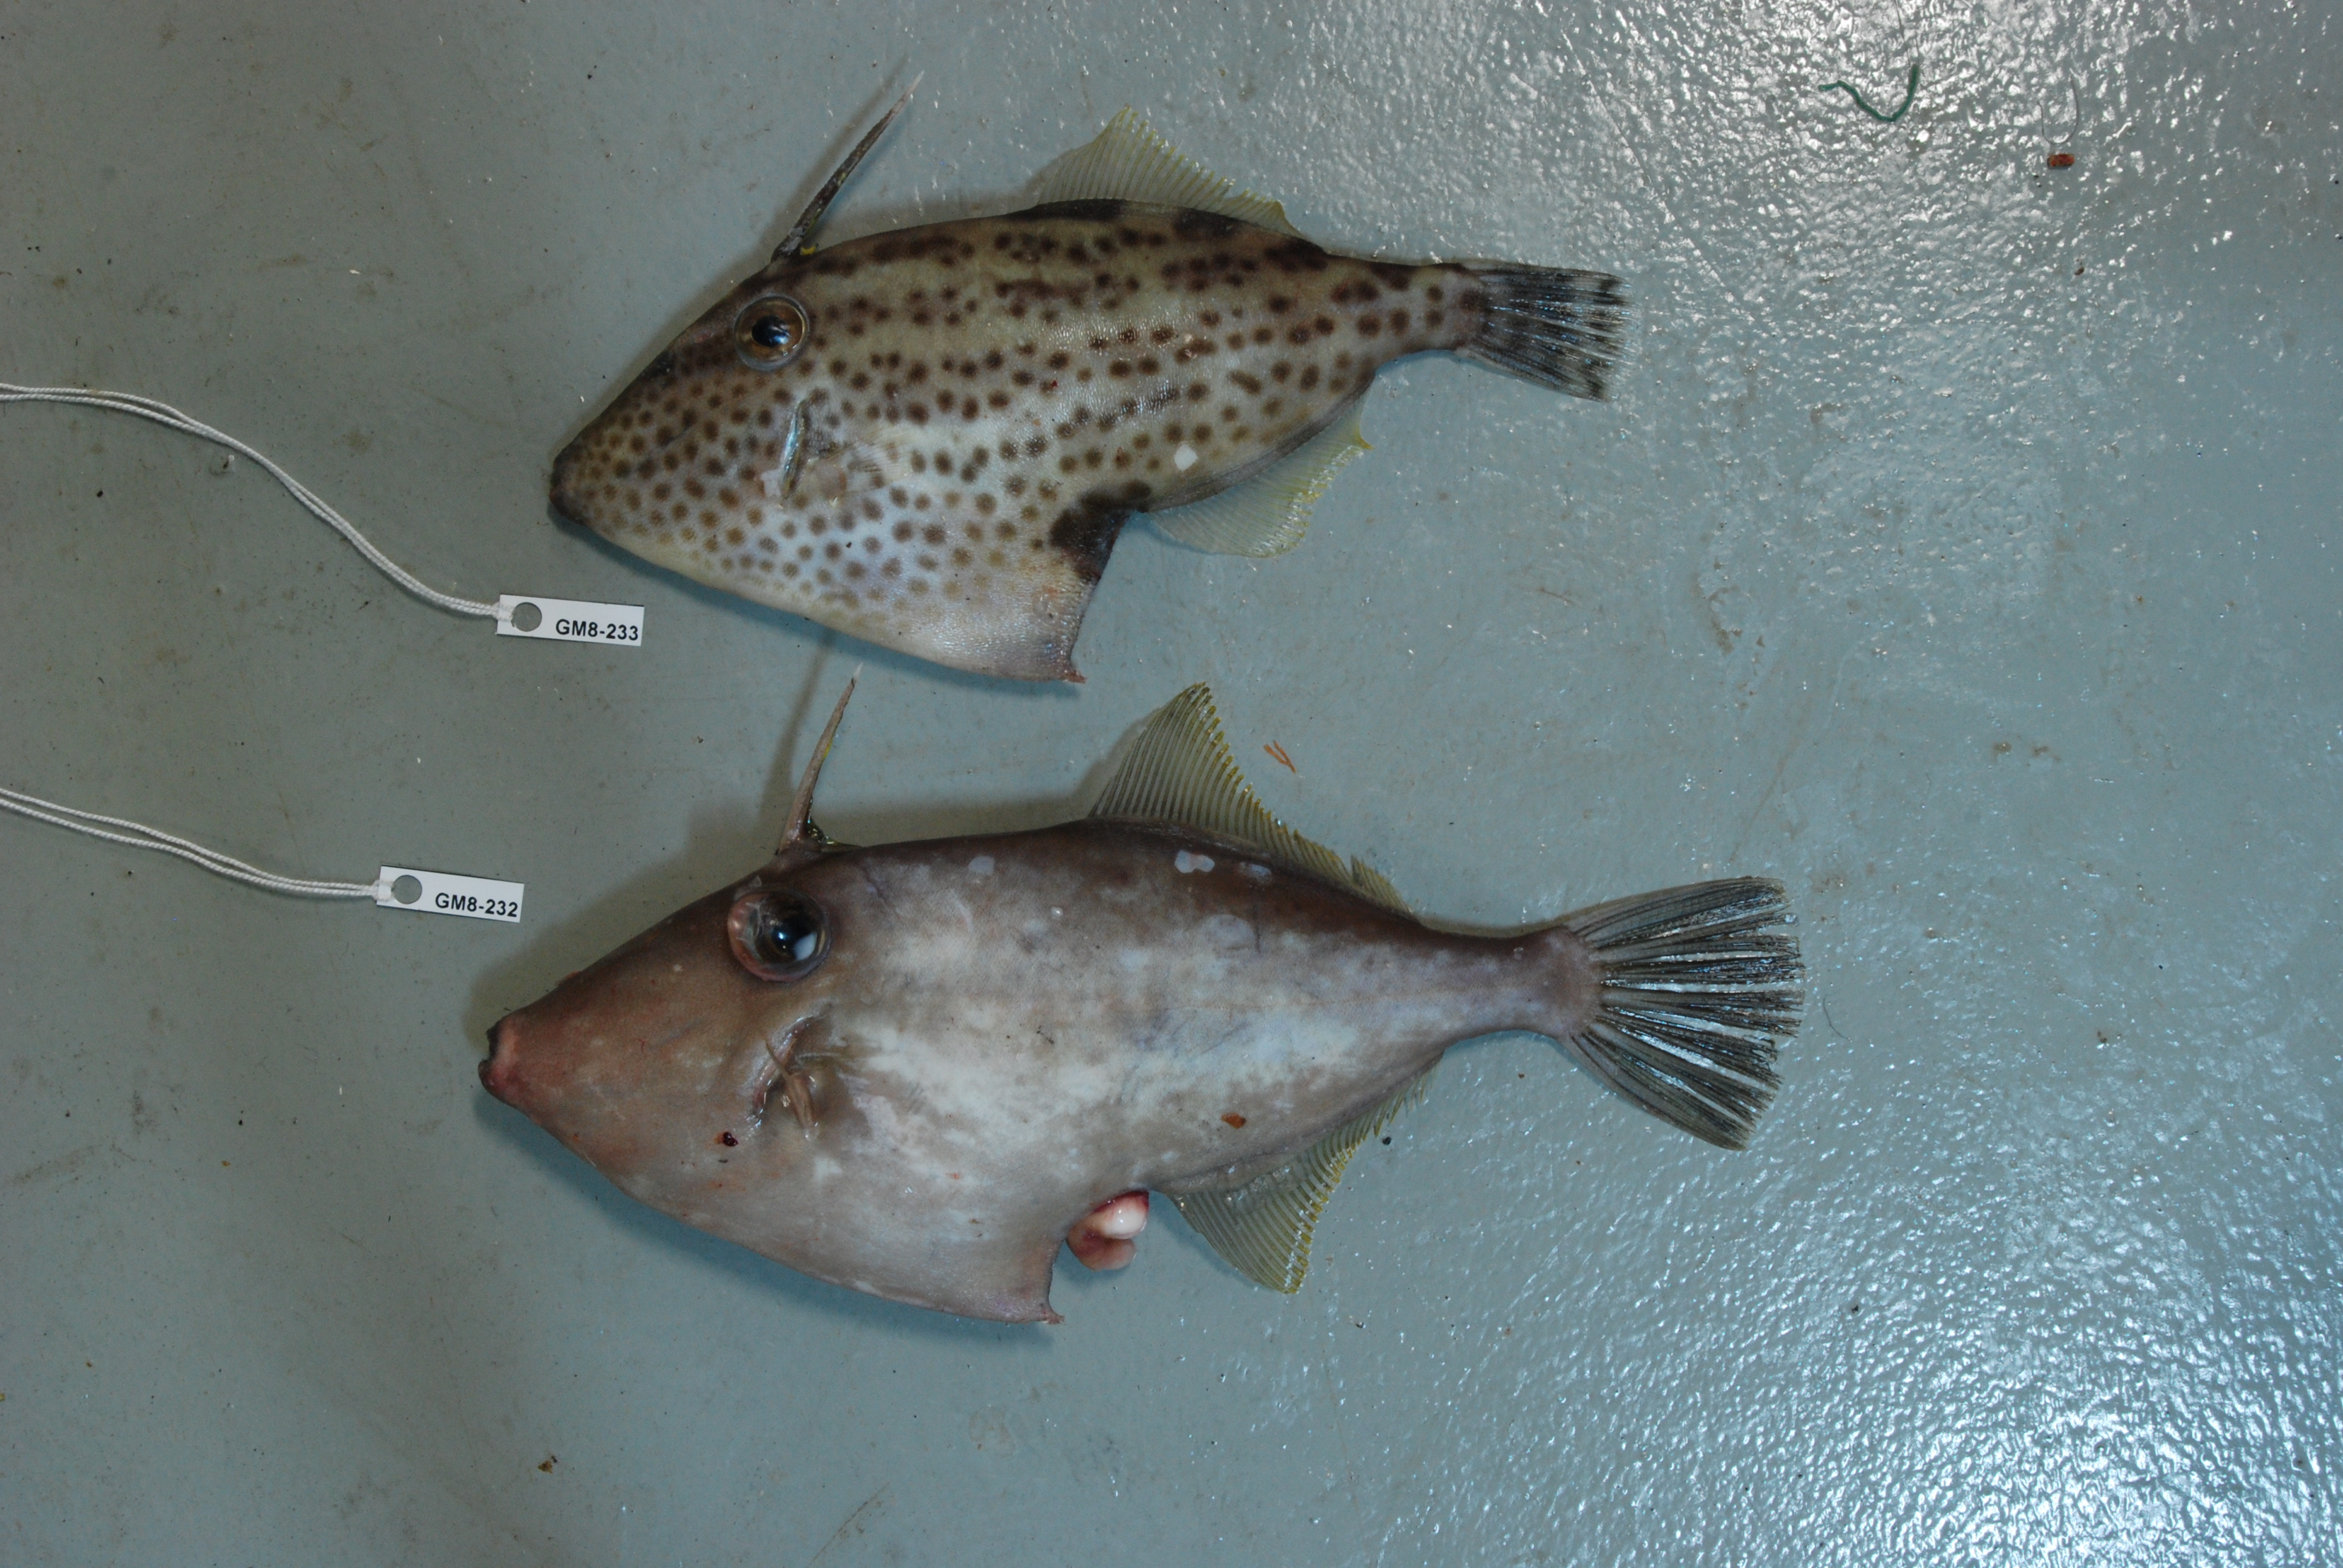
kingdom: Animalia
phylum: Chordata
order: Tetraodontiformes
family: Monacanthidae
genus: Thamnaconus
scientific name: Thamnaconus modestoides
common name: Modest filefish
